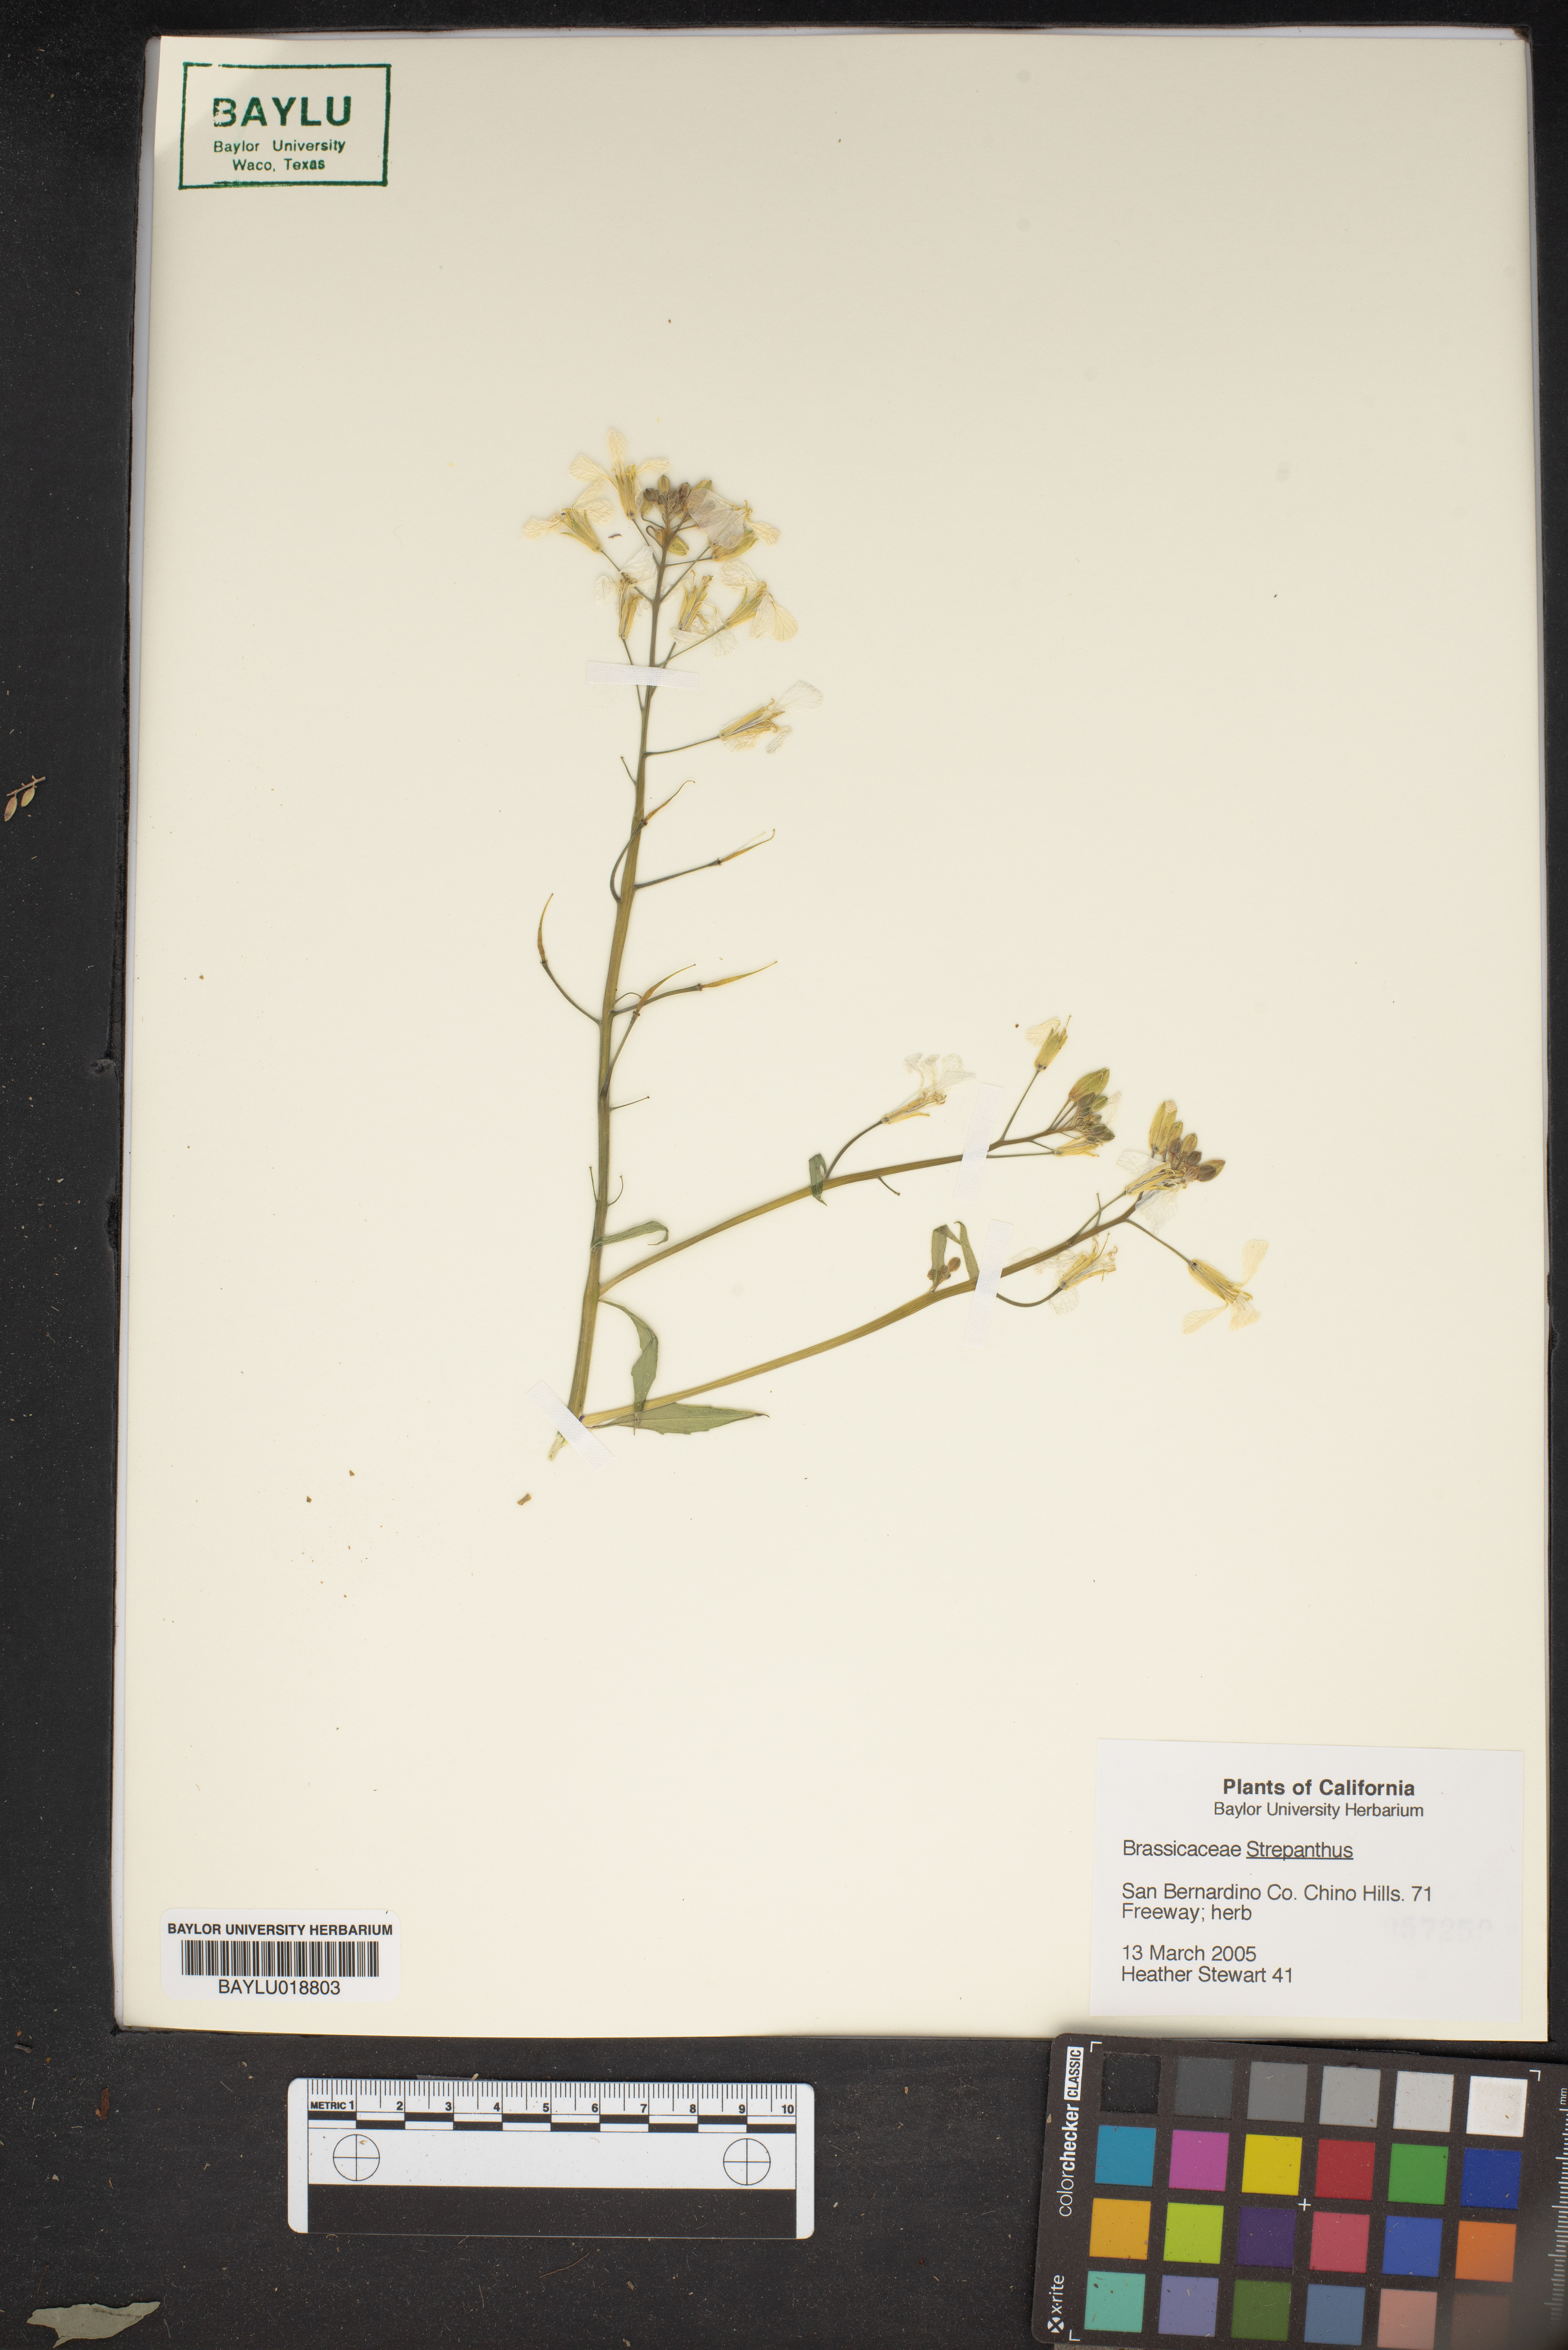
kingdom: Plantae
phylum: Tracheophyta
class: Magnoliopsida
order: Brassicales
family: Brassicaceae
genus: Streptanthus
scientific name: Streptanthus
